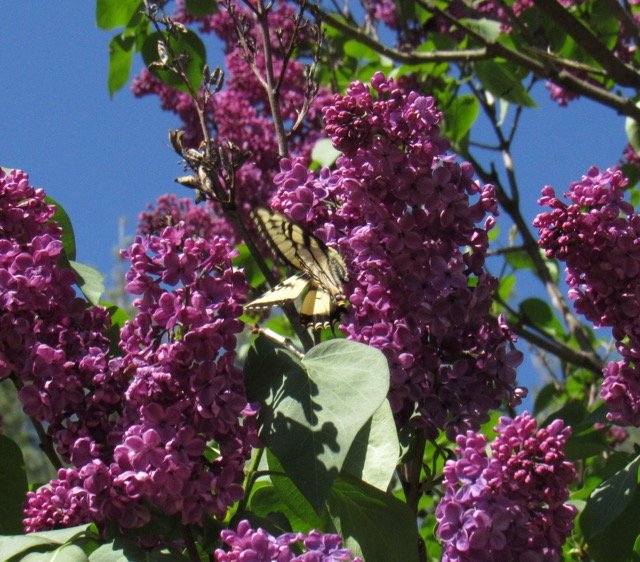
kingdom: Animalia
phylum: Arthropoda
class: Insecta
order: Lepidoptera
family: Papilionidae
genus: Pterourus
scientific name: Pterourus canadensis
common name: Canadian Tiger Swallowtail
